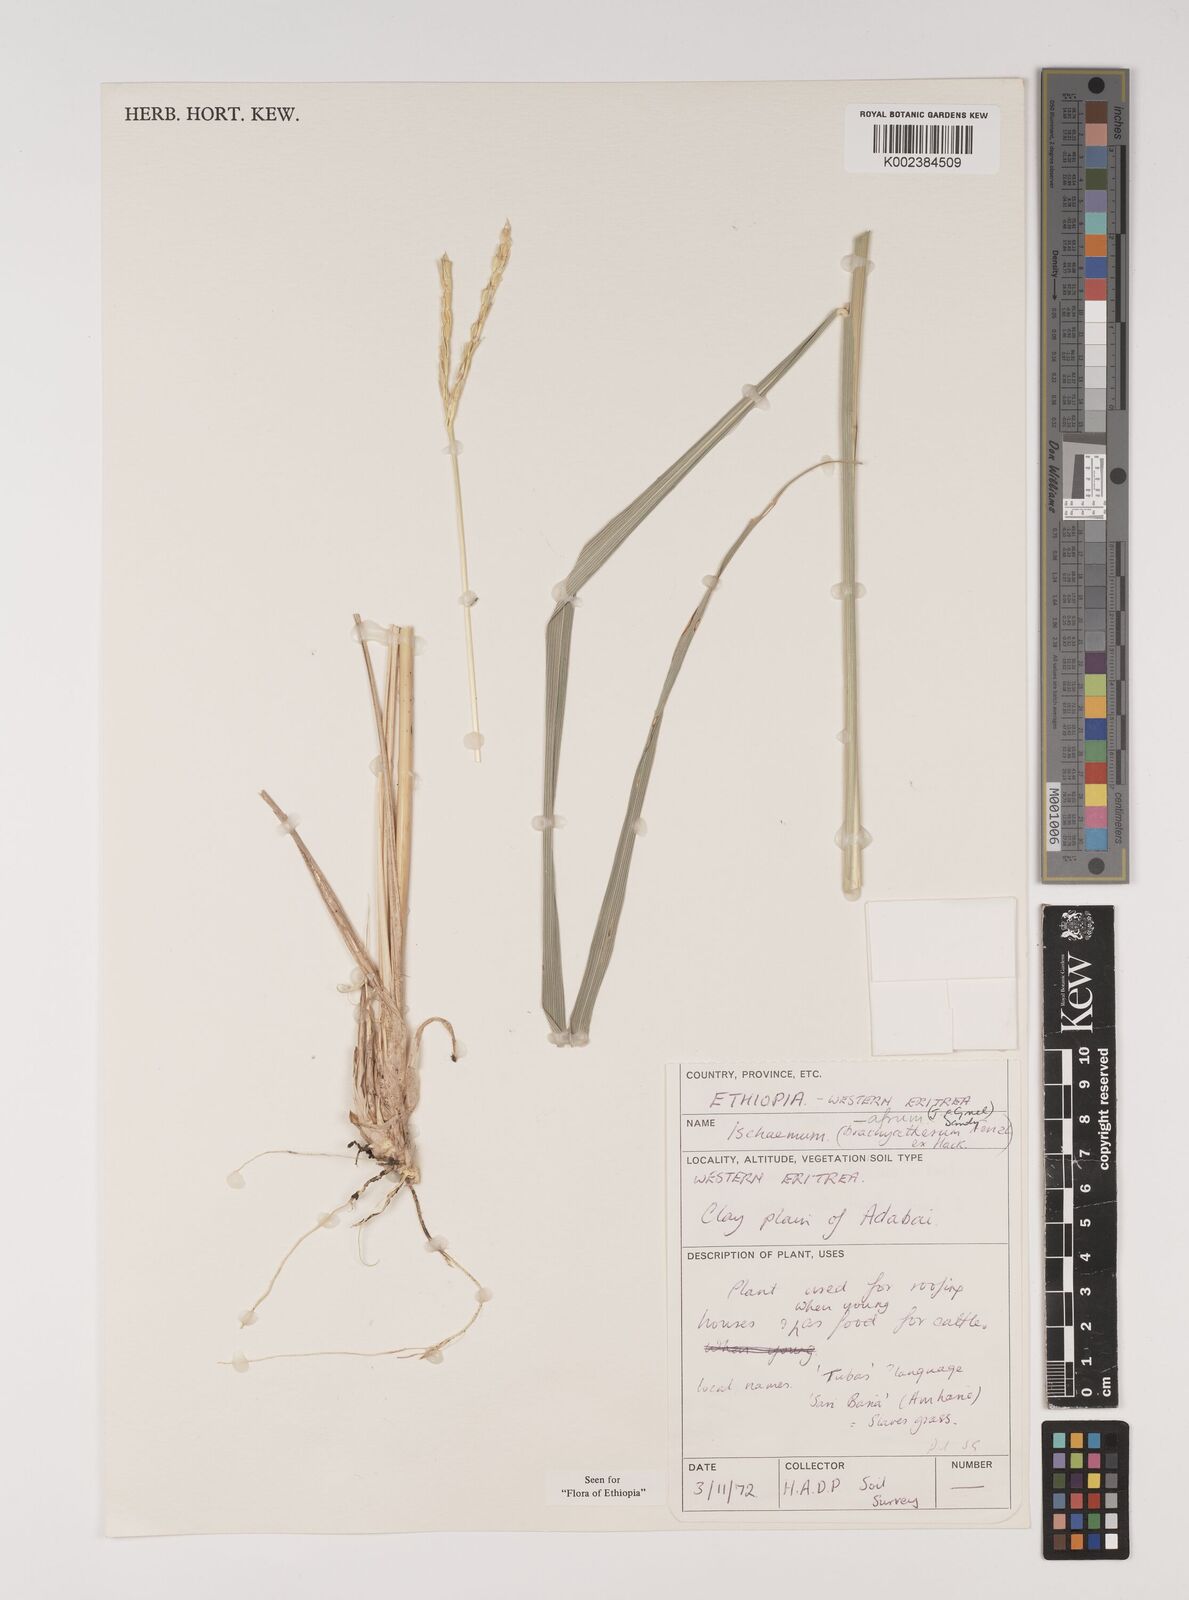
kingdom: Plantae
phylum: Tracheophyta
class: Liliopsida
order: Poales
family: Poaceae
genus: Ischaemum
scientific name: Ischaemum afrum
